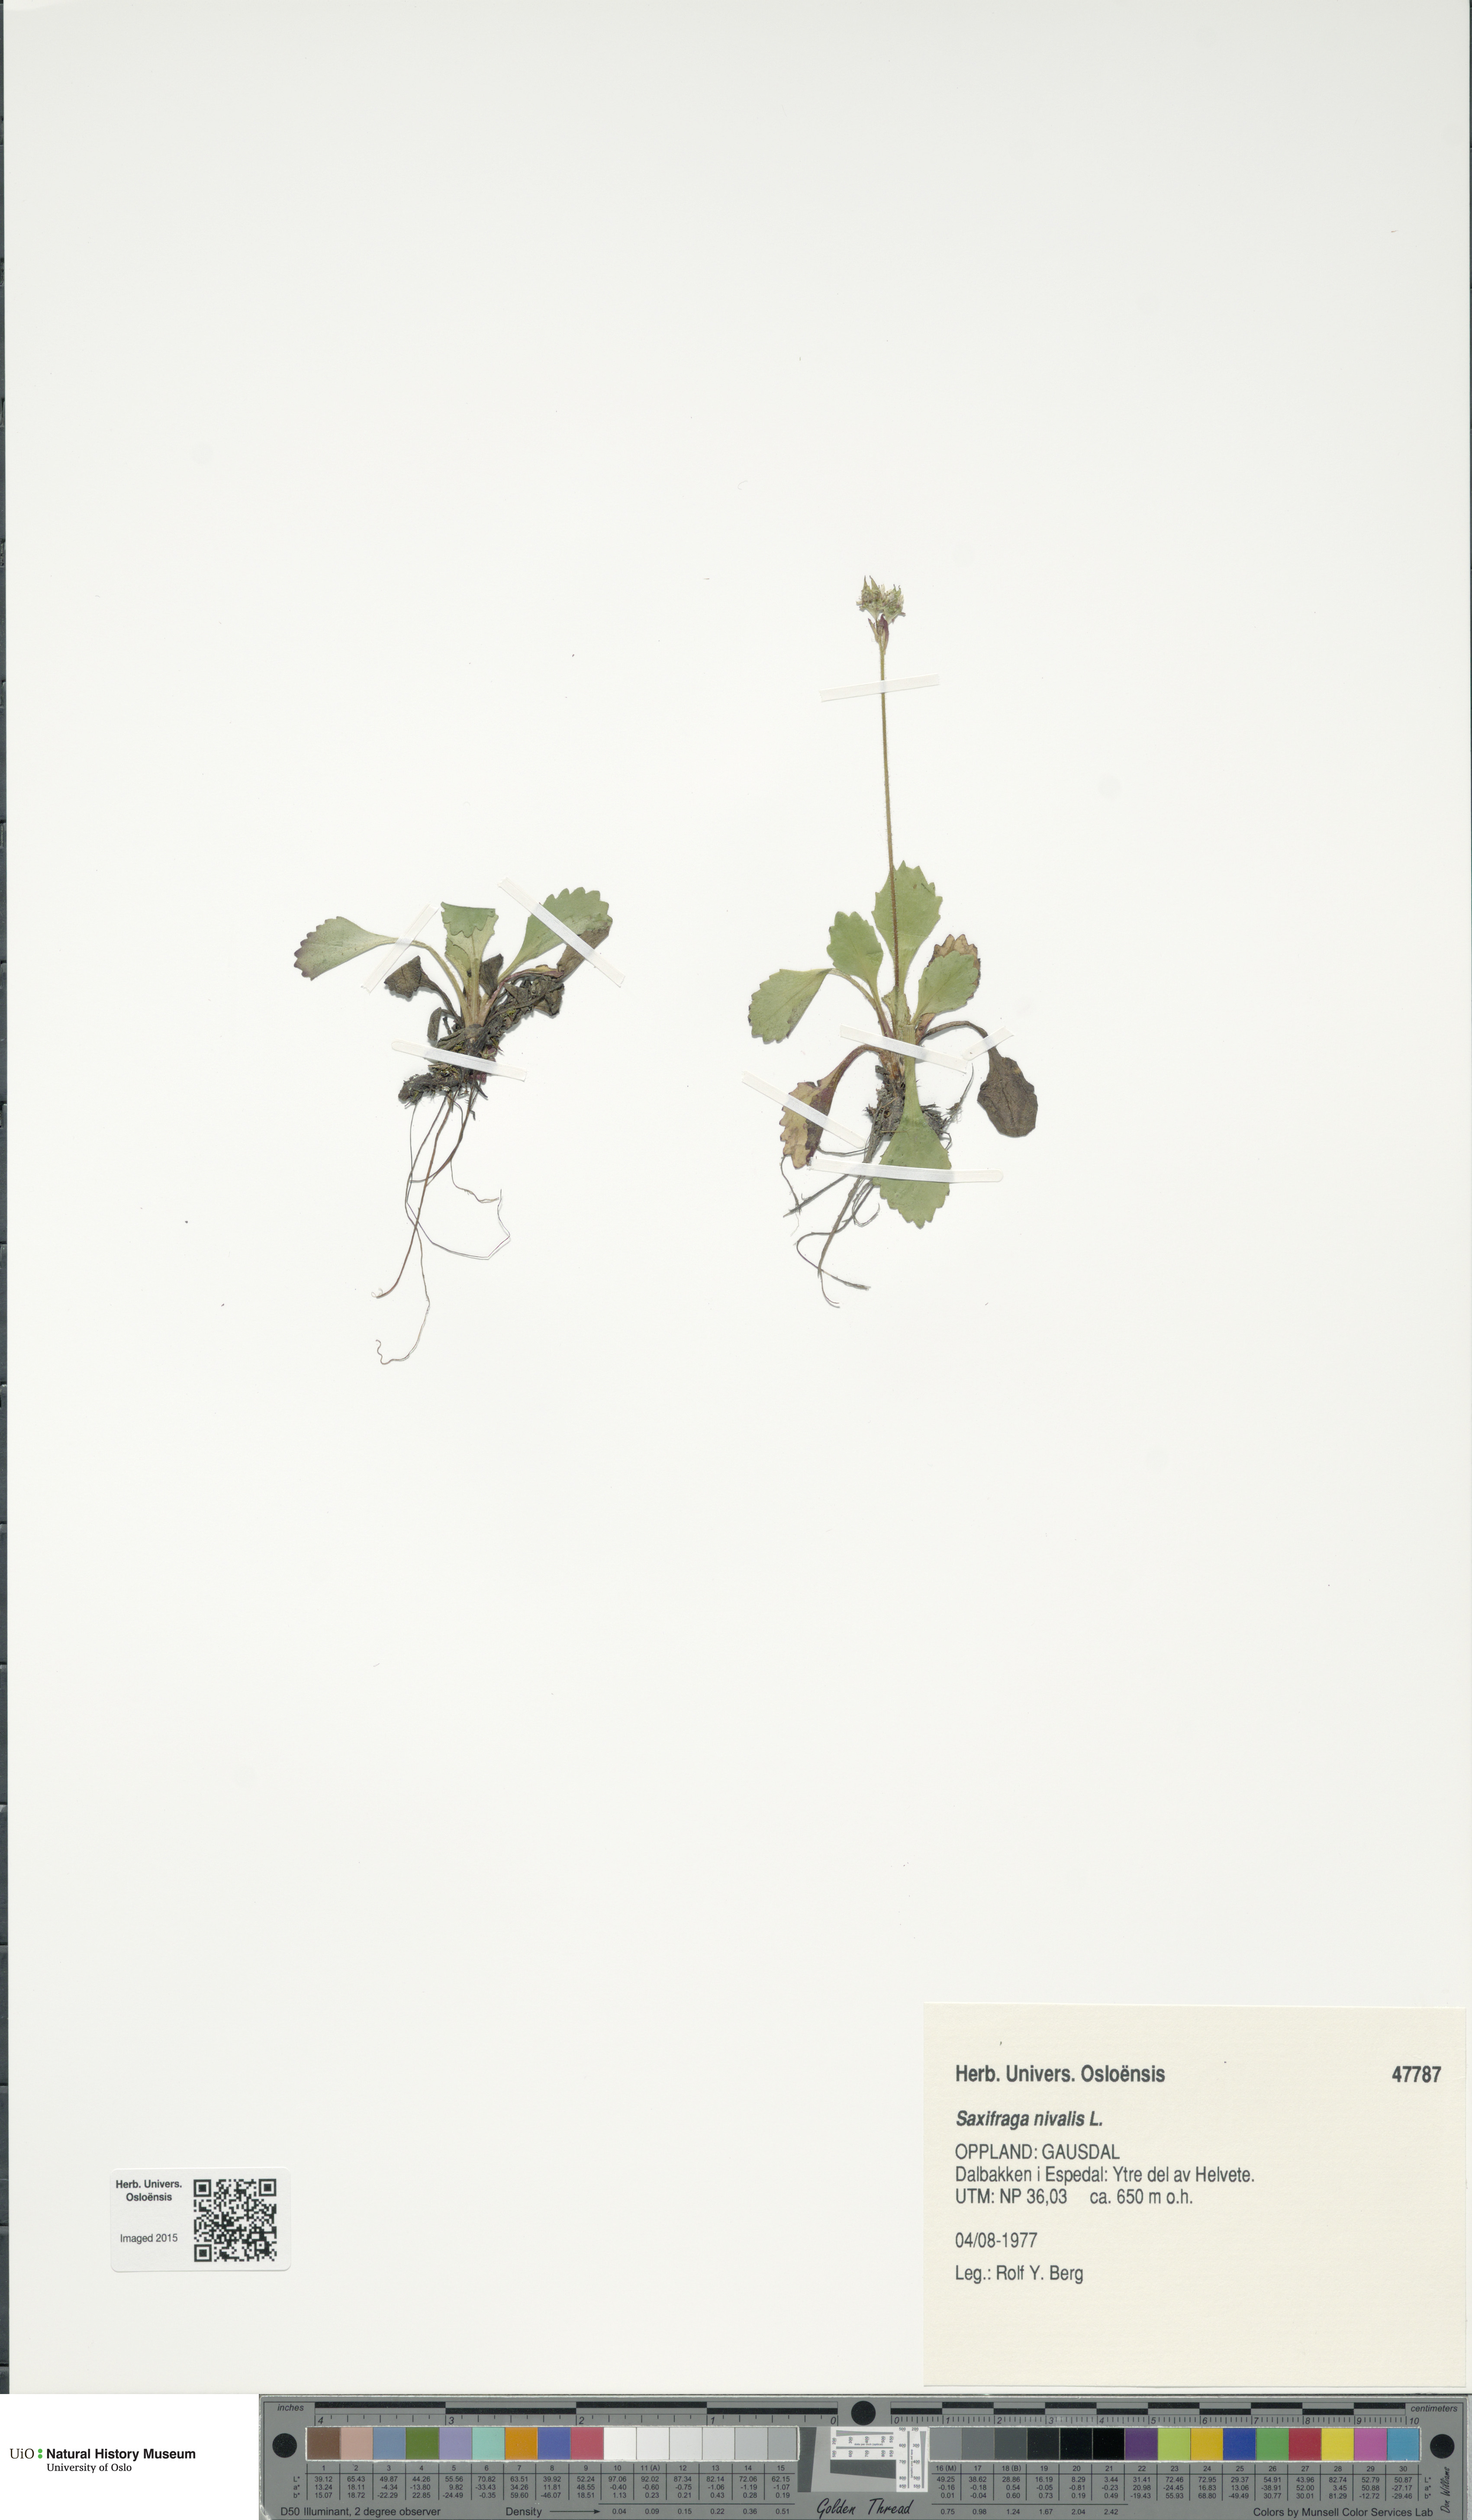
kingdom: Plantae
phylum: Tracheophyta
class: Magnoliopsida
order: Saxifragales
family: Saxifragaceae
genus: Micranthes
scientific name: Micranthes nivalis
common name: Alpine saxifrage
